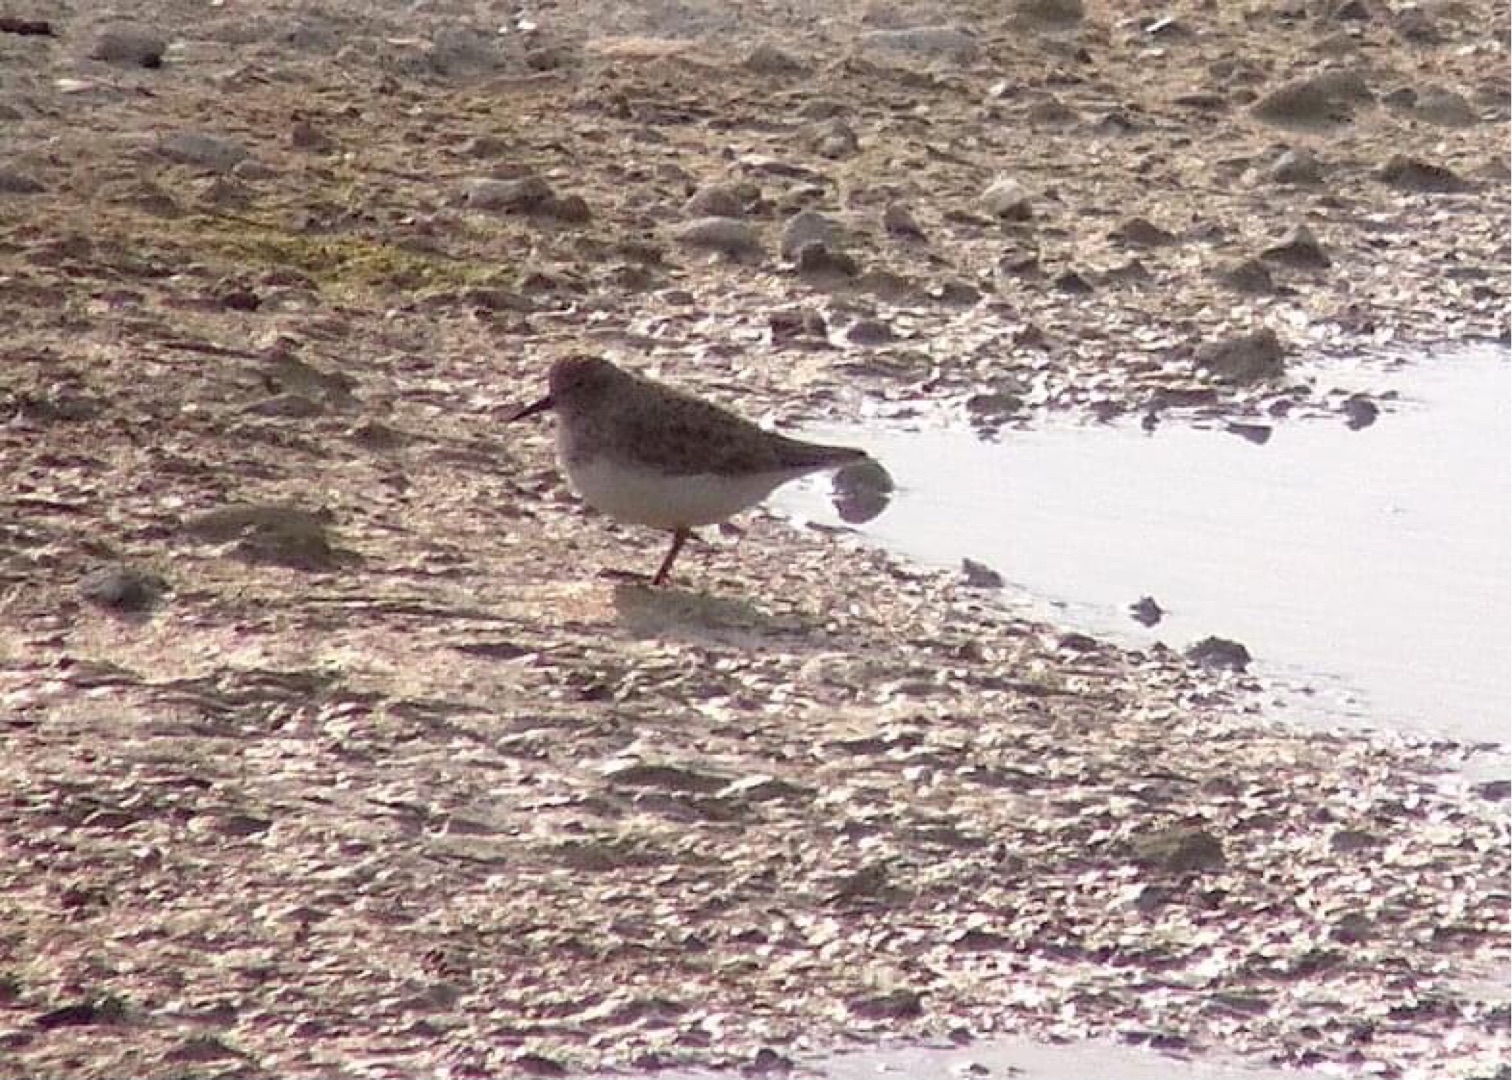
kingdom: Animalia
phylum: Chordata
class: Aves
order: Charadriiformes
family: Scolopacidae
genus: Calidris
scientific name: Calidris temminckii
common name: Temmincksryle
